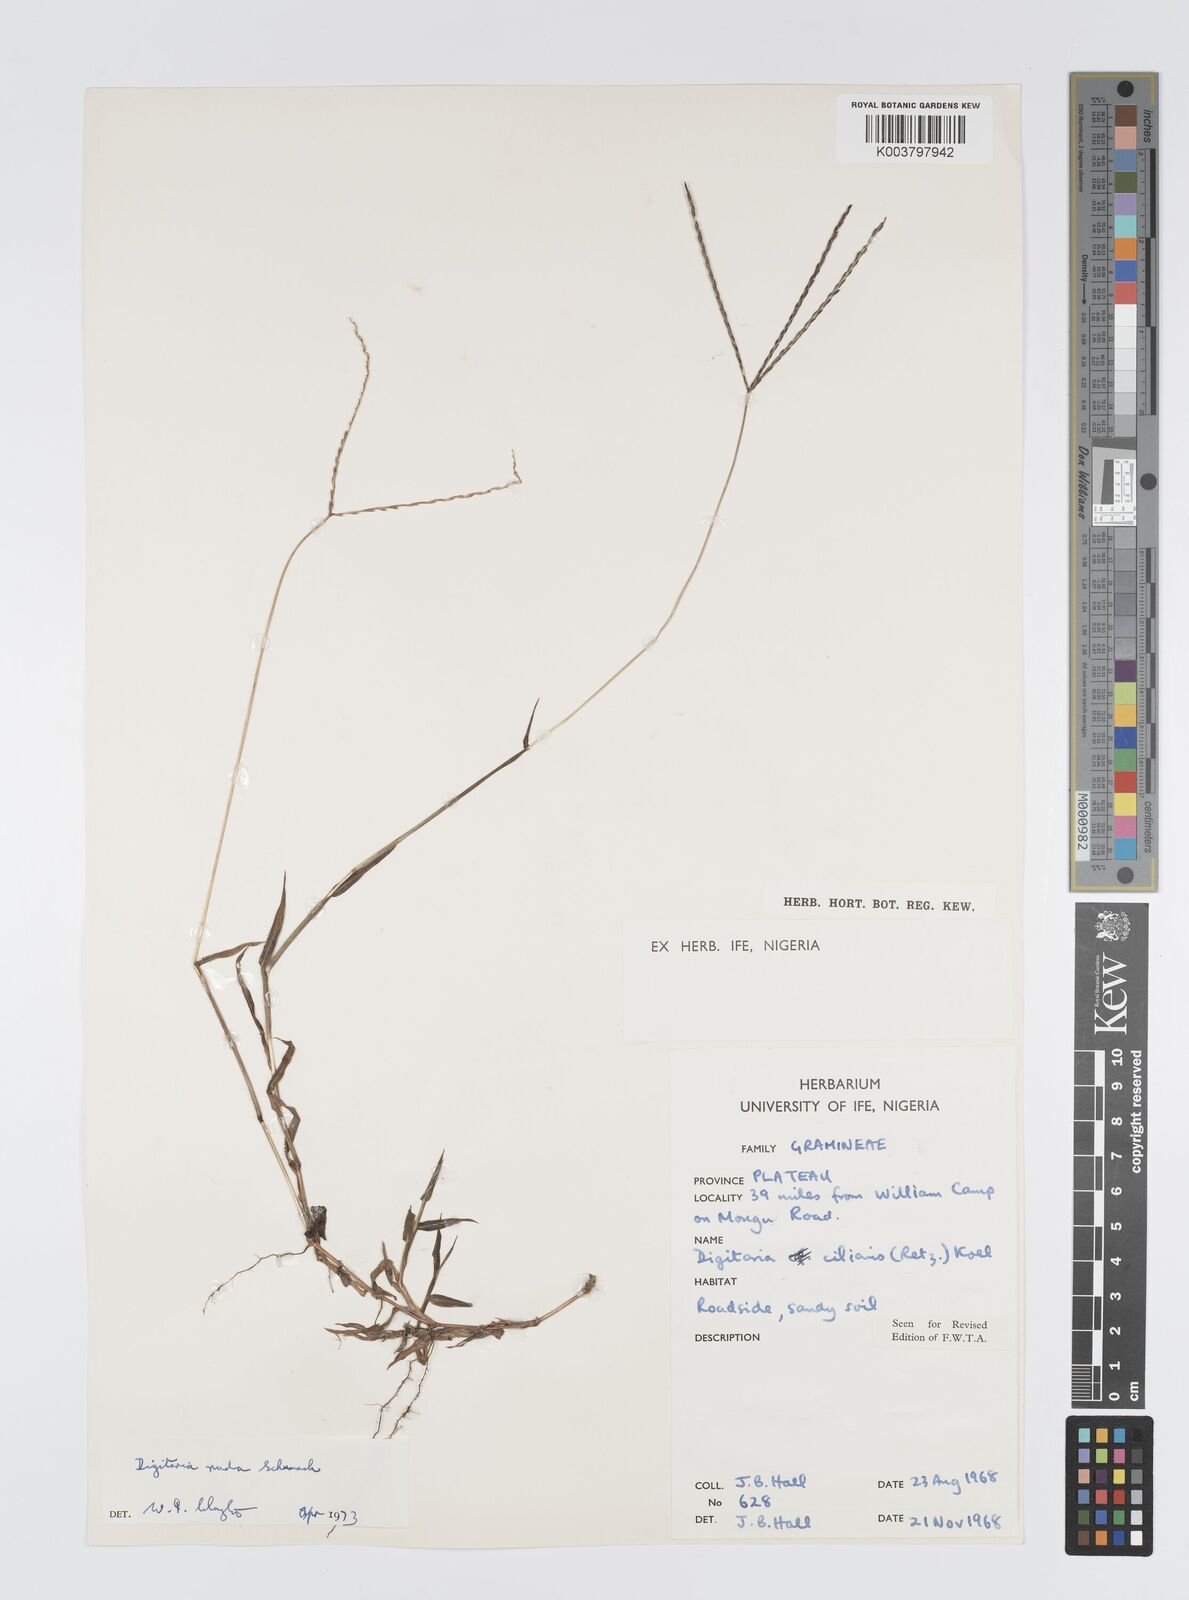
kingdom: Plantae
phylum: Tracheophyta
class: Liliopsida
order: Poales
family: Poaceae
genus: Digitaria
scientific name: Digitaria nuda
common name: Naked crabgrass
